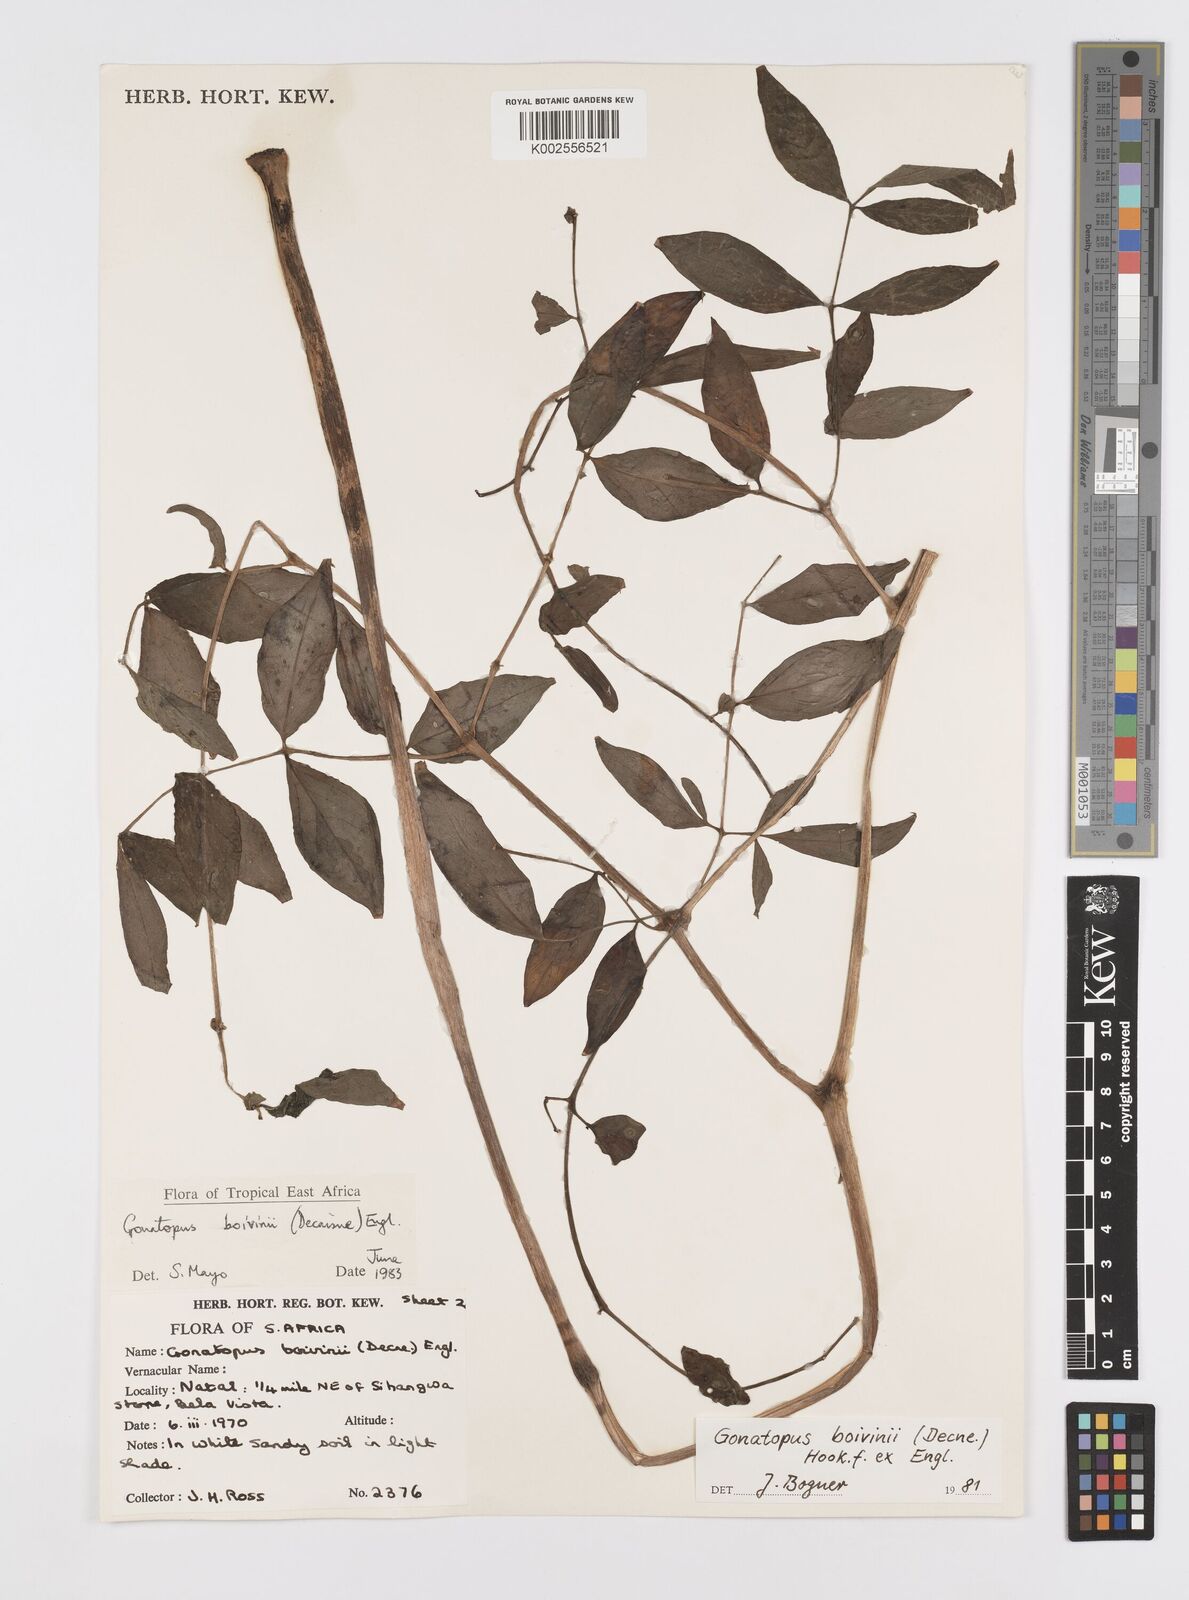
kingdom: Plantae
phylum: Tracheophyta
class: Liliopsida
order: Alismatales
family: Araceae
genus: Gonatopus
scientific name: Gonatopus boivinii
